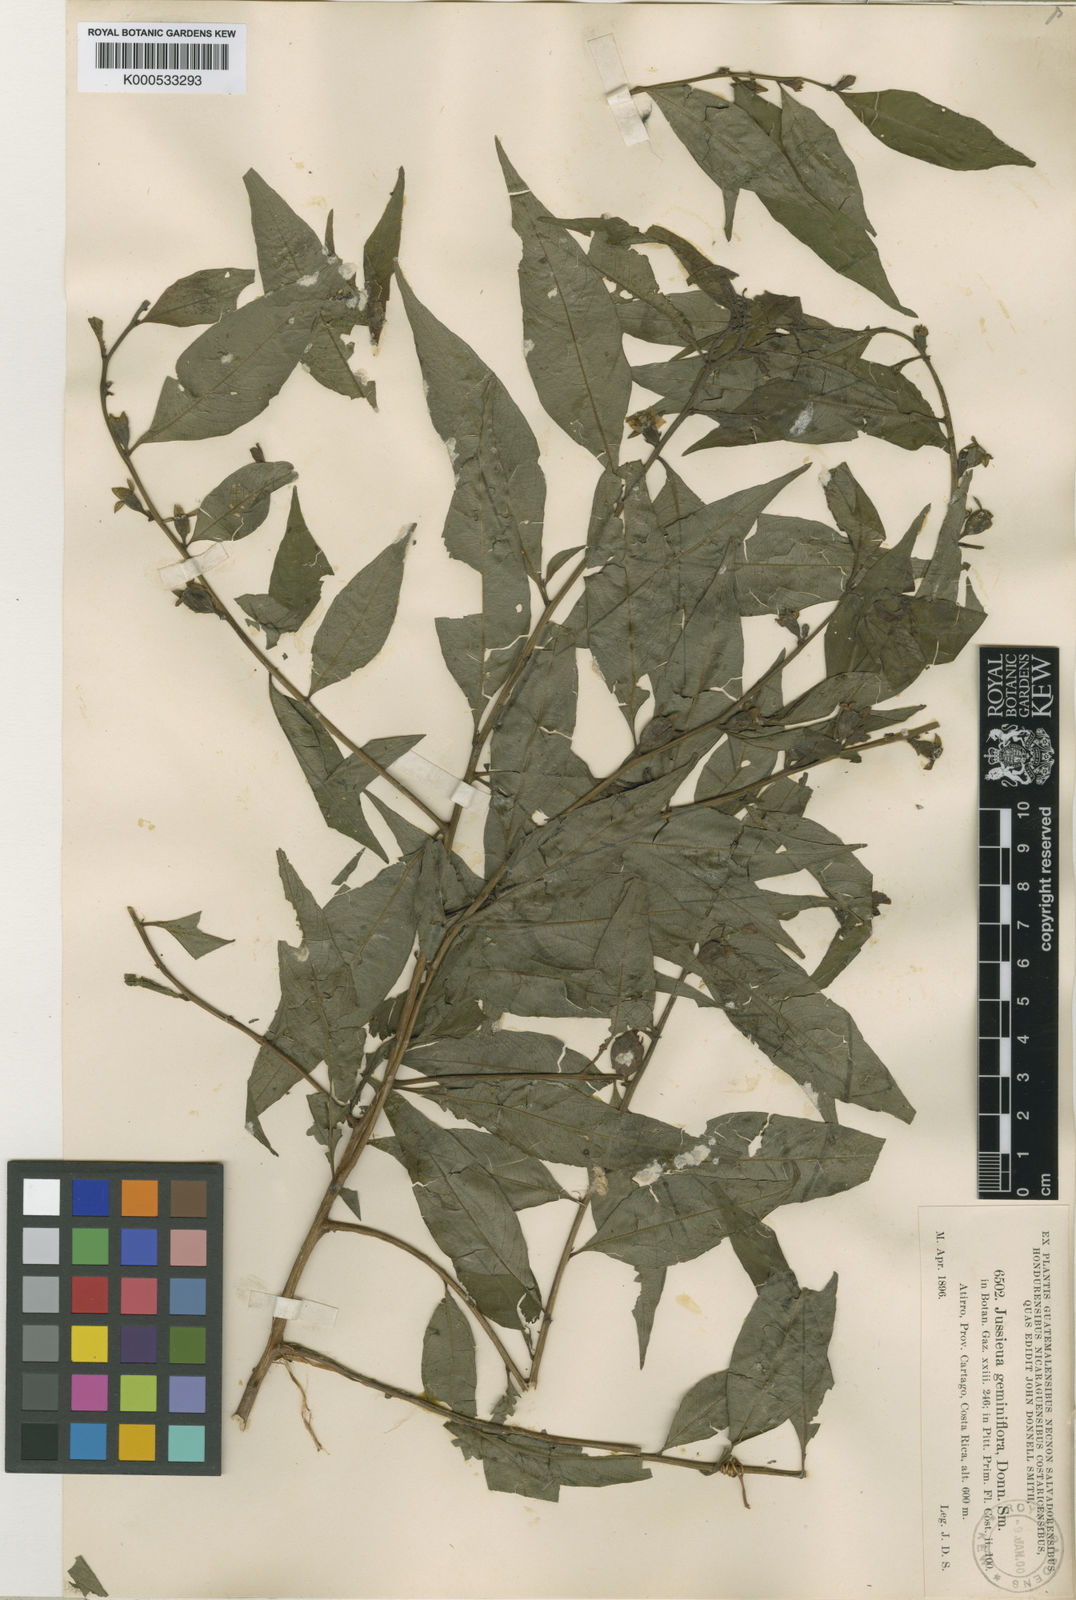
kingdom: Plantae
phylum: Tracheophyta
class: Magnoliopsida
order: Myrtales
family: Onagraceae
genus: Ludwigia
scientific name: Ludwigia latifolia
